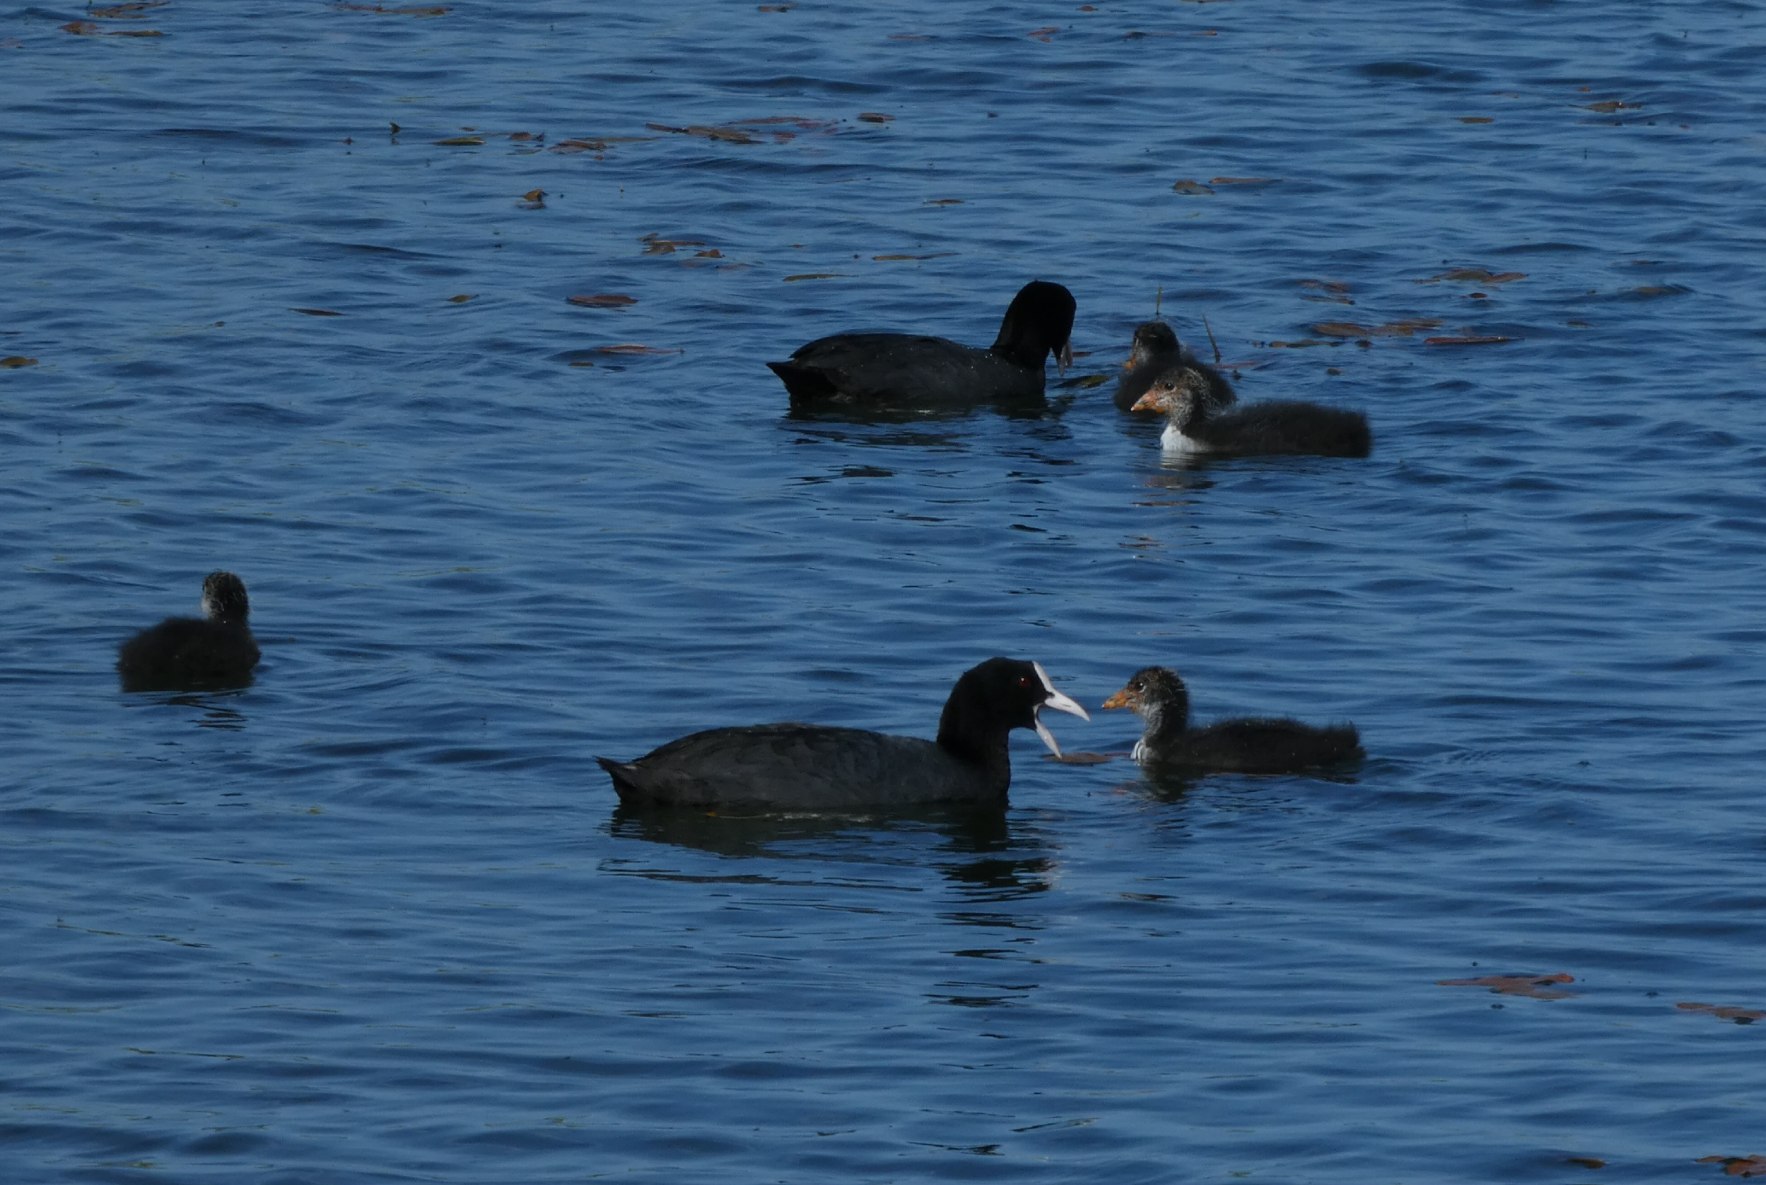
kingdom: Animalia
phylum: Chordata
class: Aves
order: Gruiformes
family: Rallidae
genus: Fulica
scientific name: Fulica atra
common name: Blishøne
